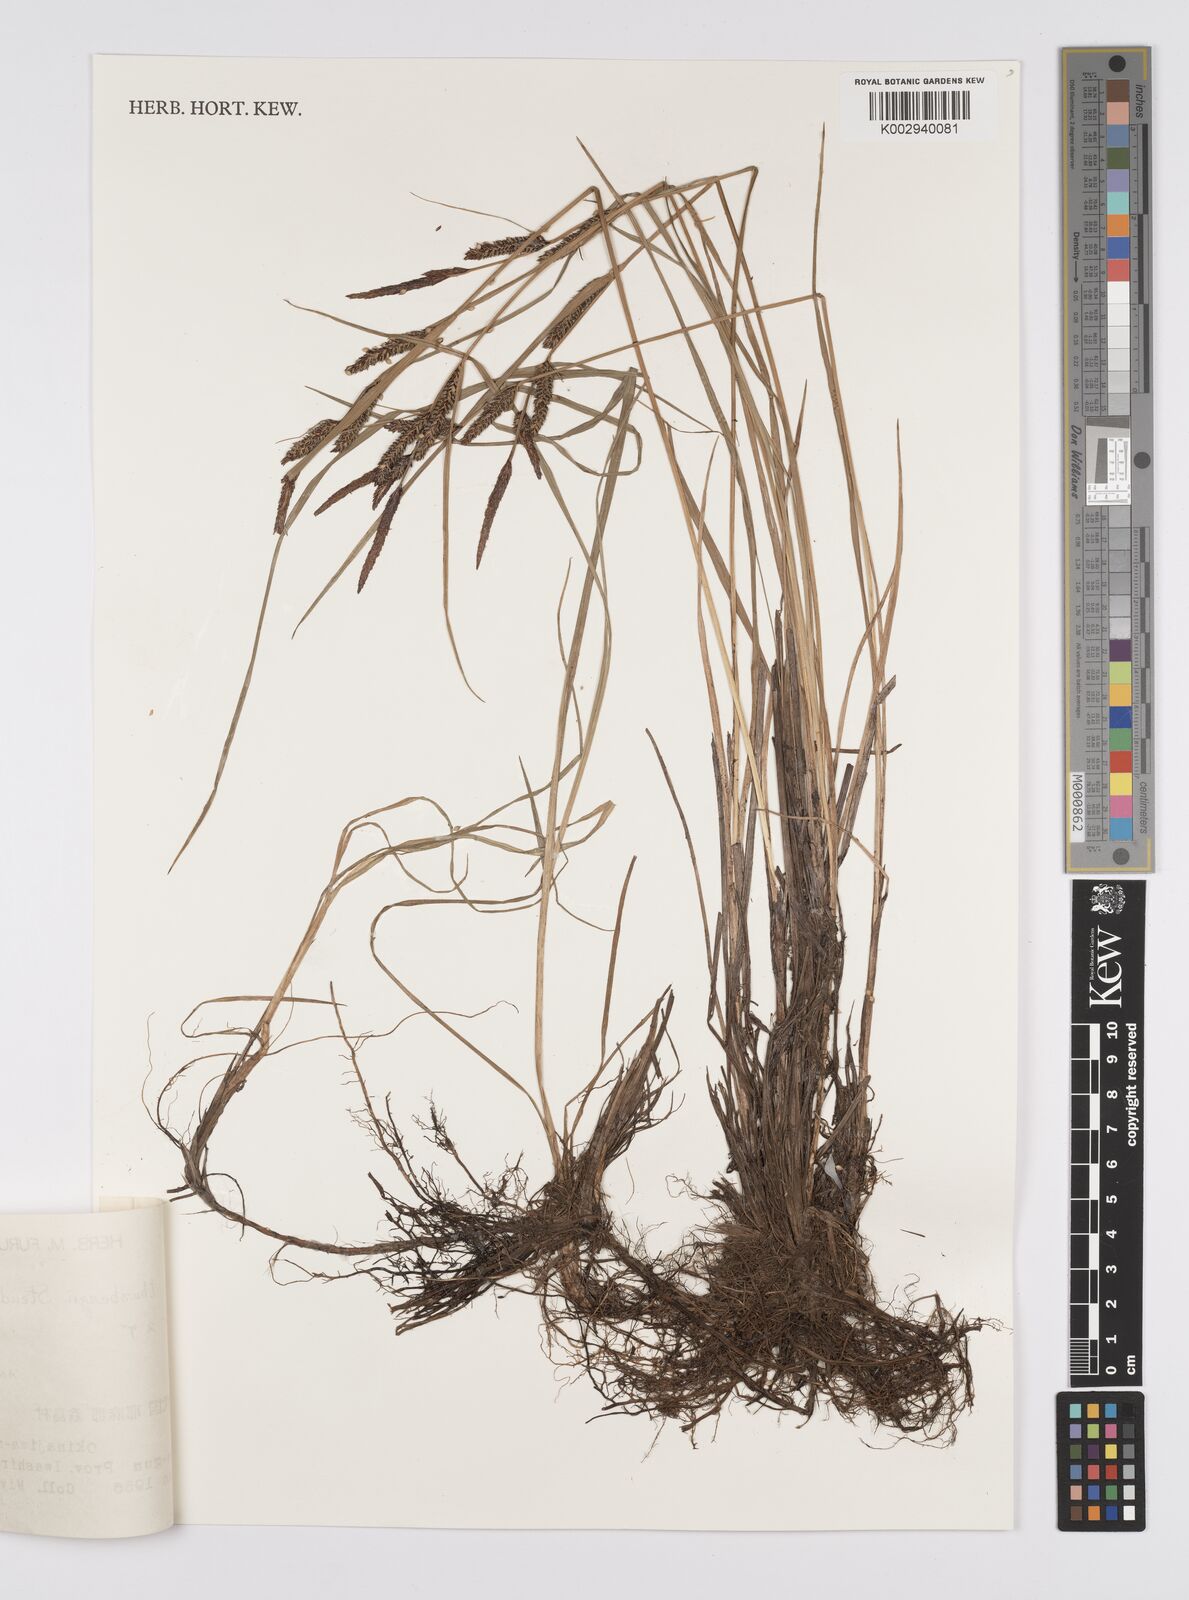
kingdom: Plantae
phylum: Tracheophyta
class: Liliopsida
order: Poales
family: Cyperaceae
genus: Carex
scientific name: Carex thunbergii
